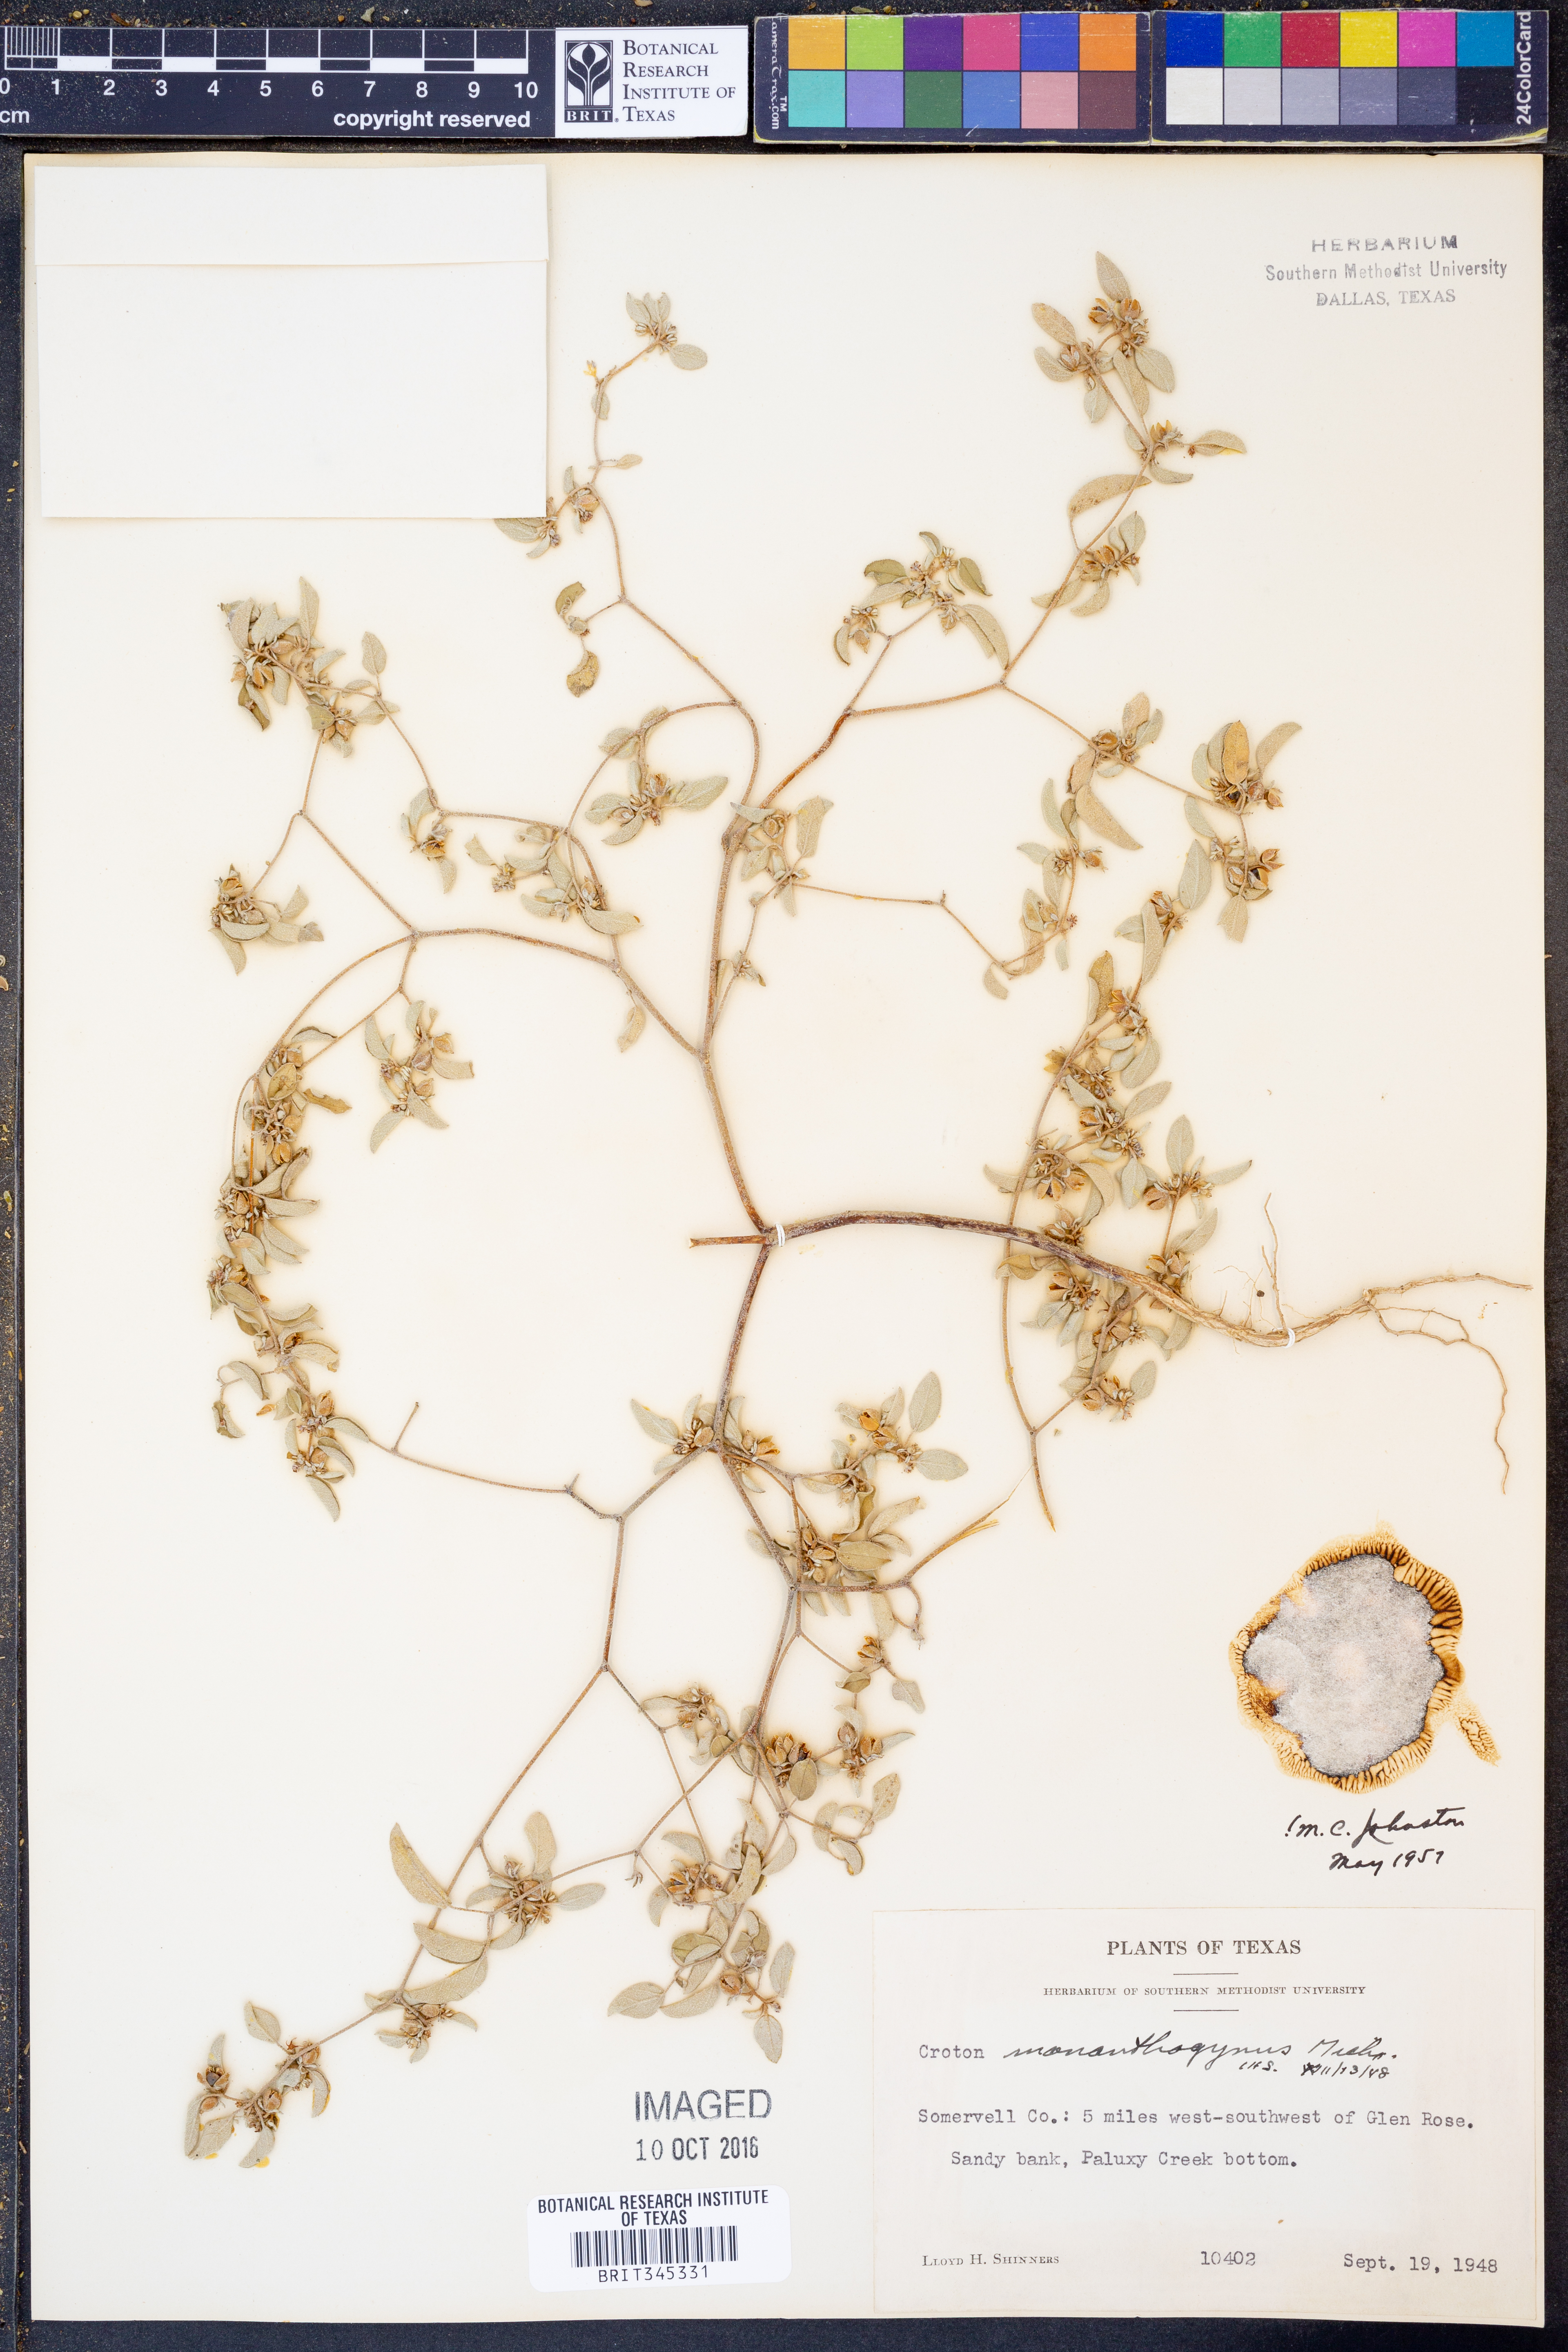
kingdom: Plantae
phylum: Tracheophyta
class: Magnoliopsida
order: Malpighiales
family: Euphorbiaceae
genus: Croton
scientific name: Croton monanthogynus
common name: One-seed croton
